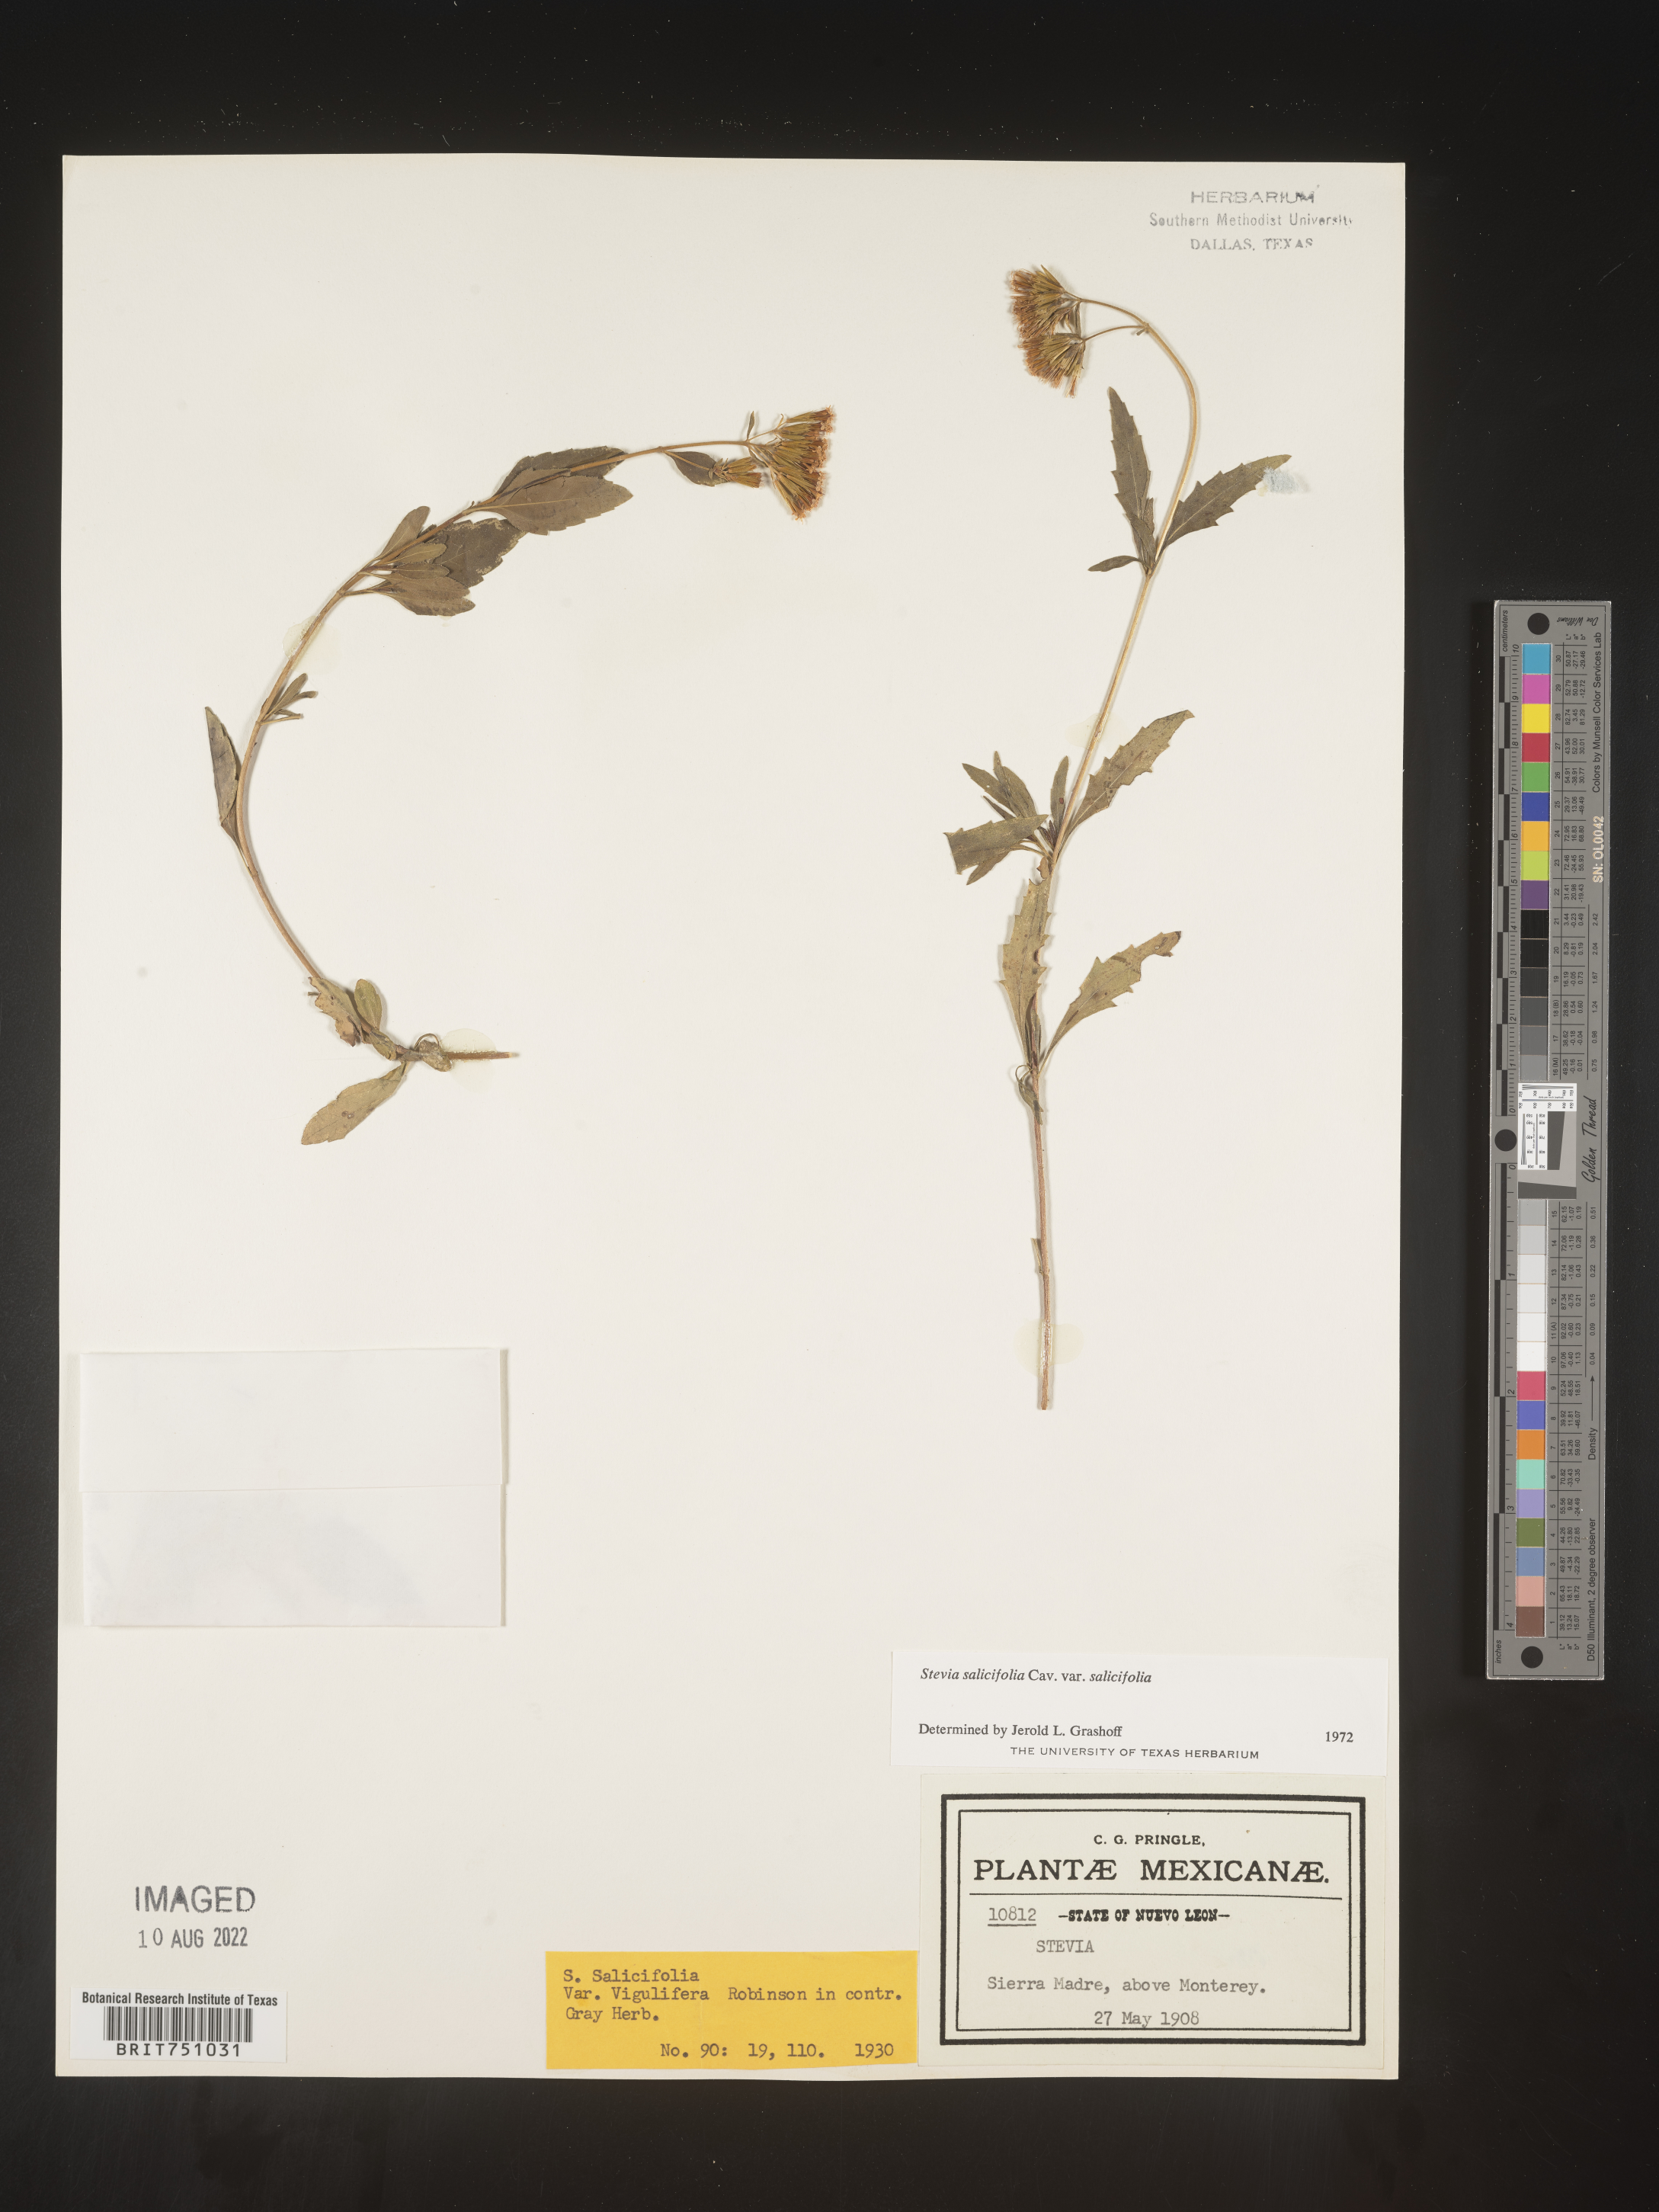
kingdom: Plantae
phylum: Tracheophyta
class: Magnoliopsida
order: Asterales
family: Asteraceae
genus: Stevia
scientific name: Stevia salicifolia
